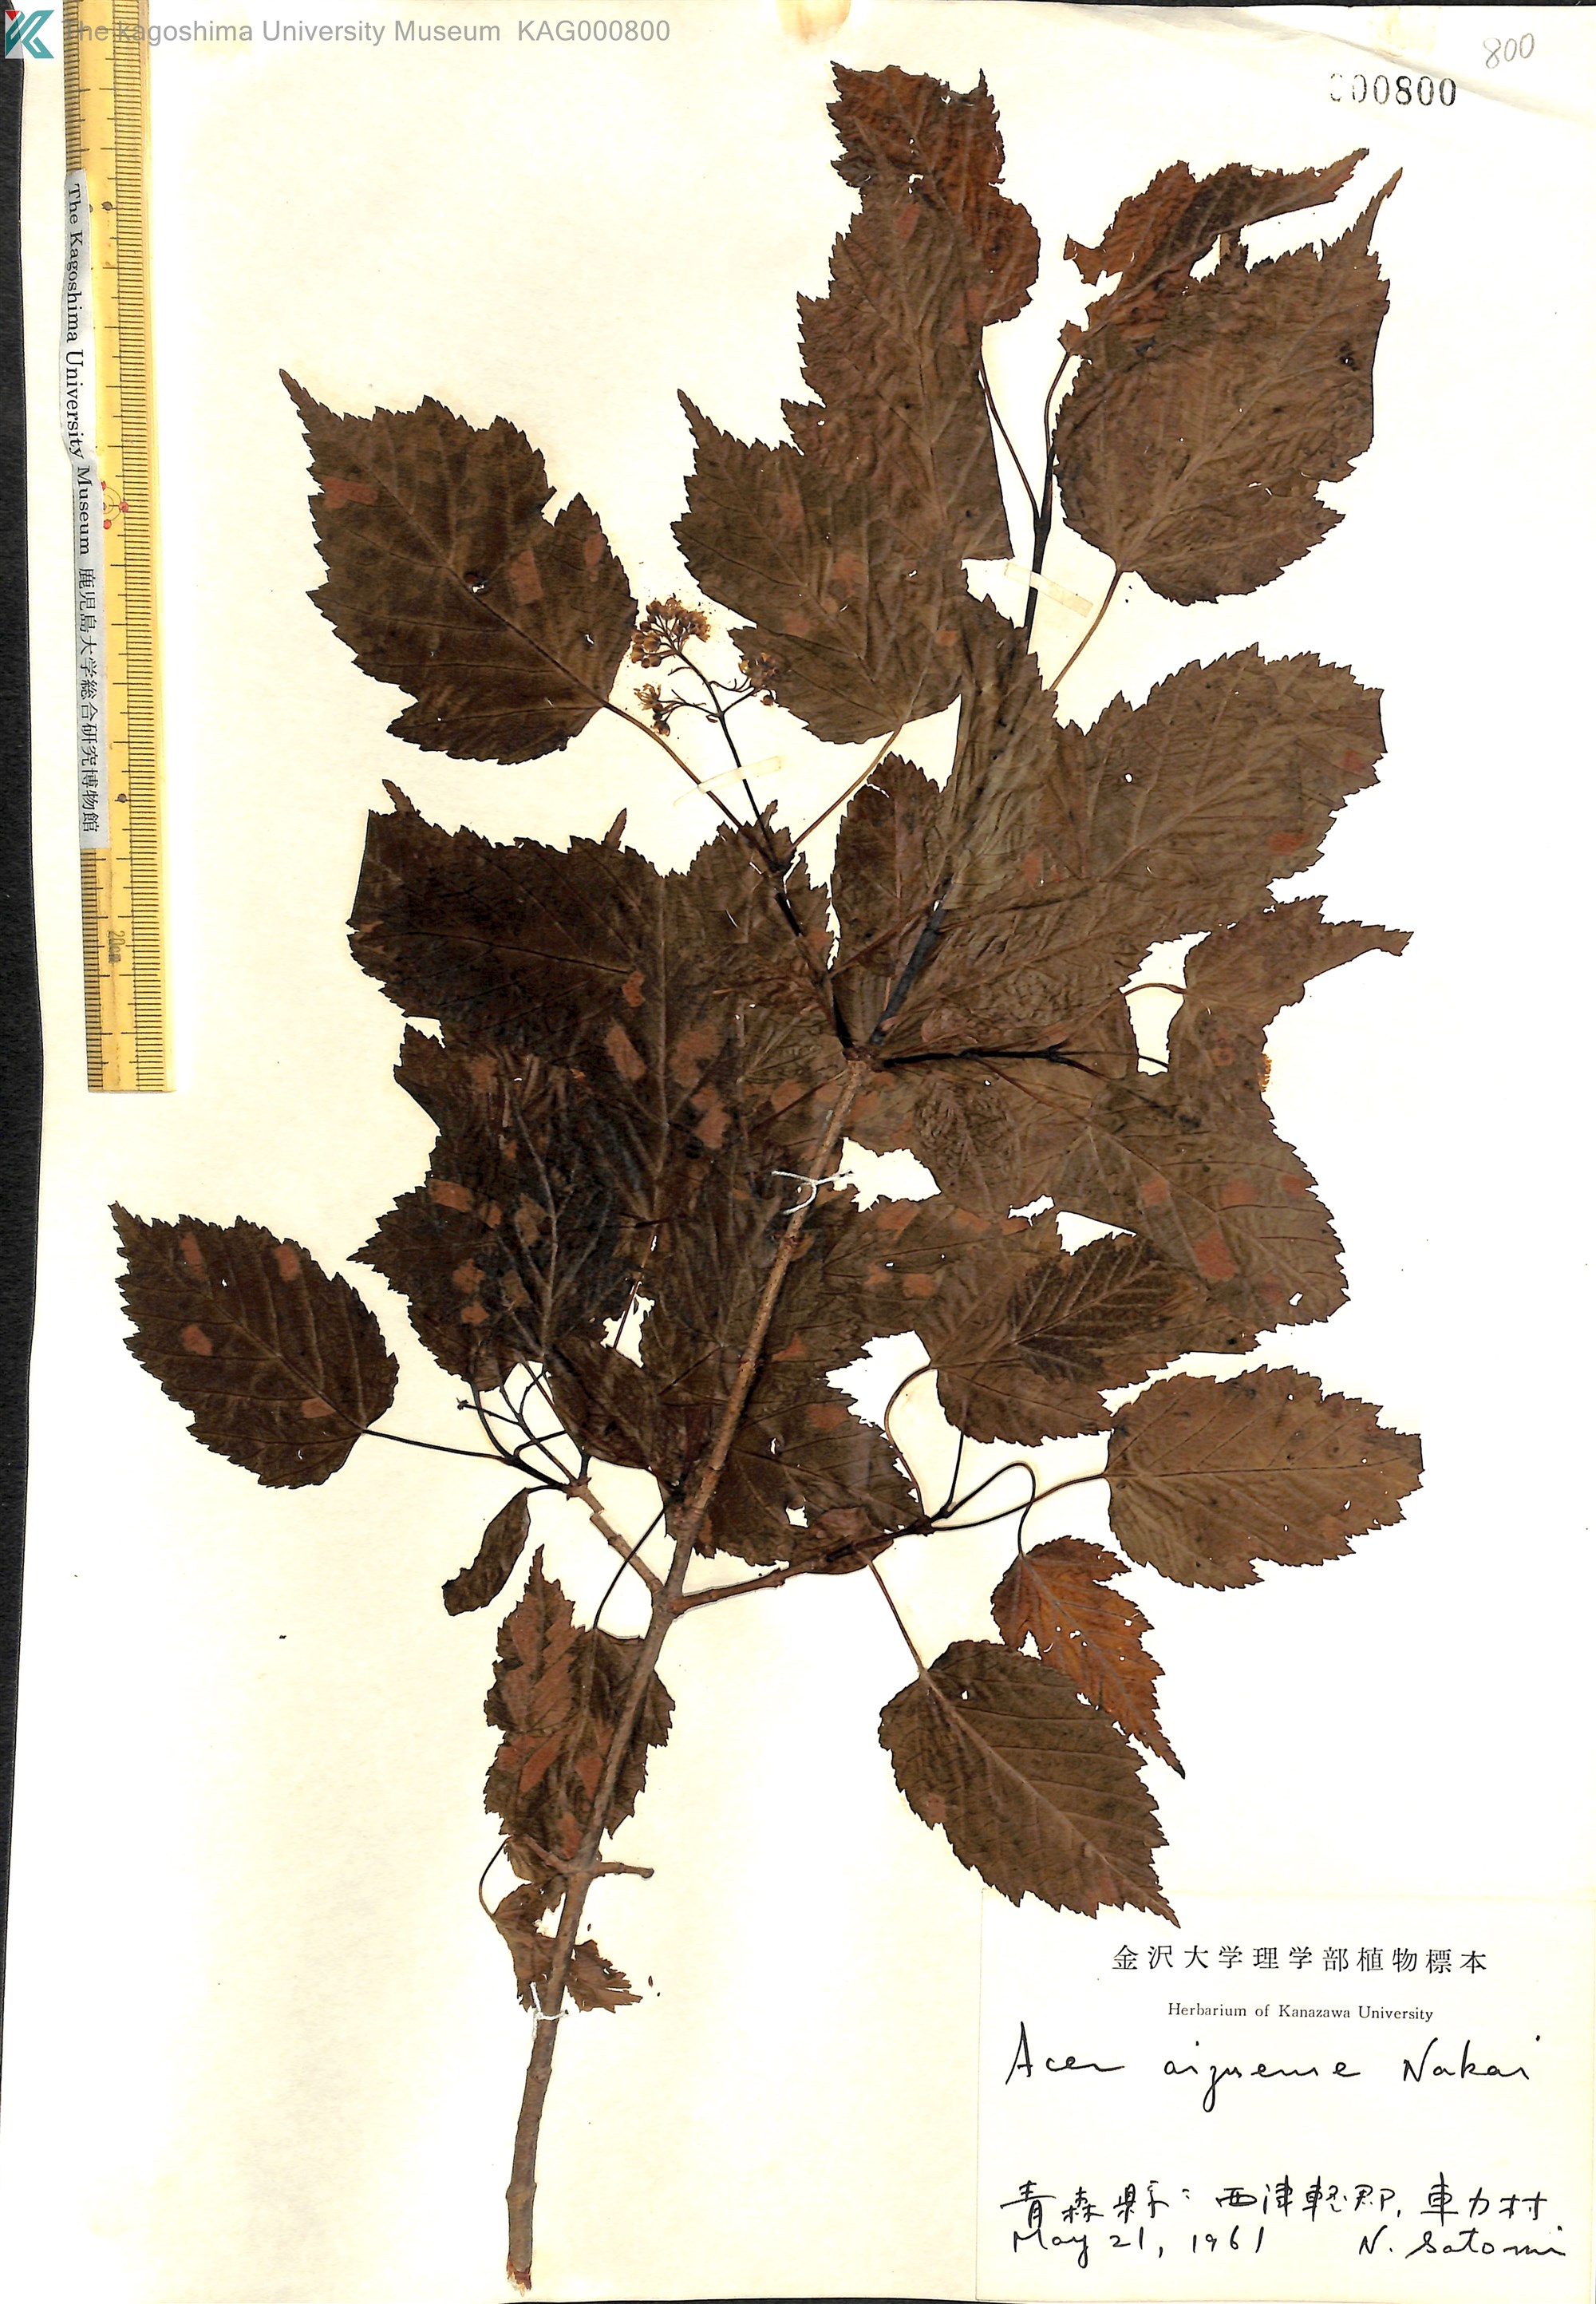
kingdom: Plantae
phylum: Tracheophyta
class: Magnoliopsida
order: Sapindales
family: Sapindaceae
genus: Acer
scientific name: Acer tataricum
